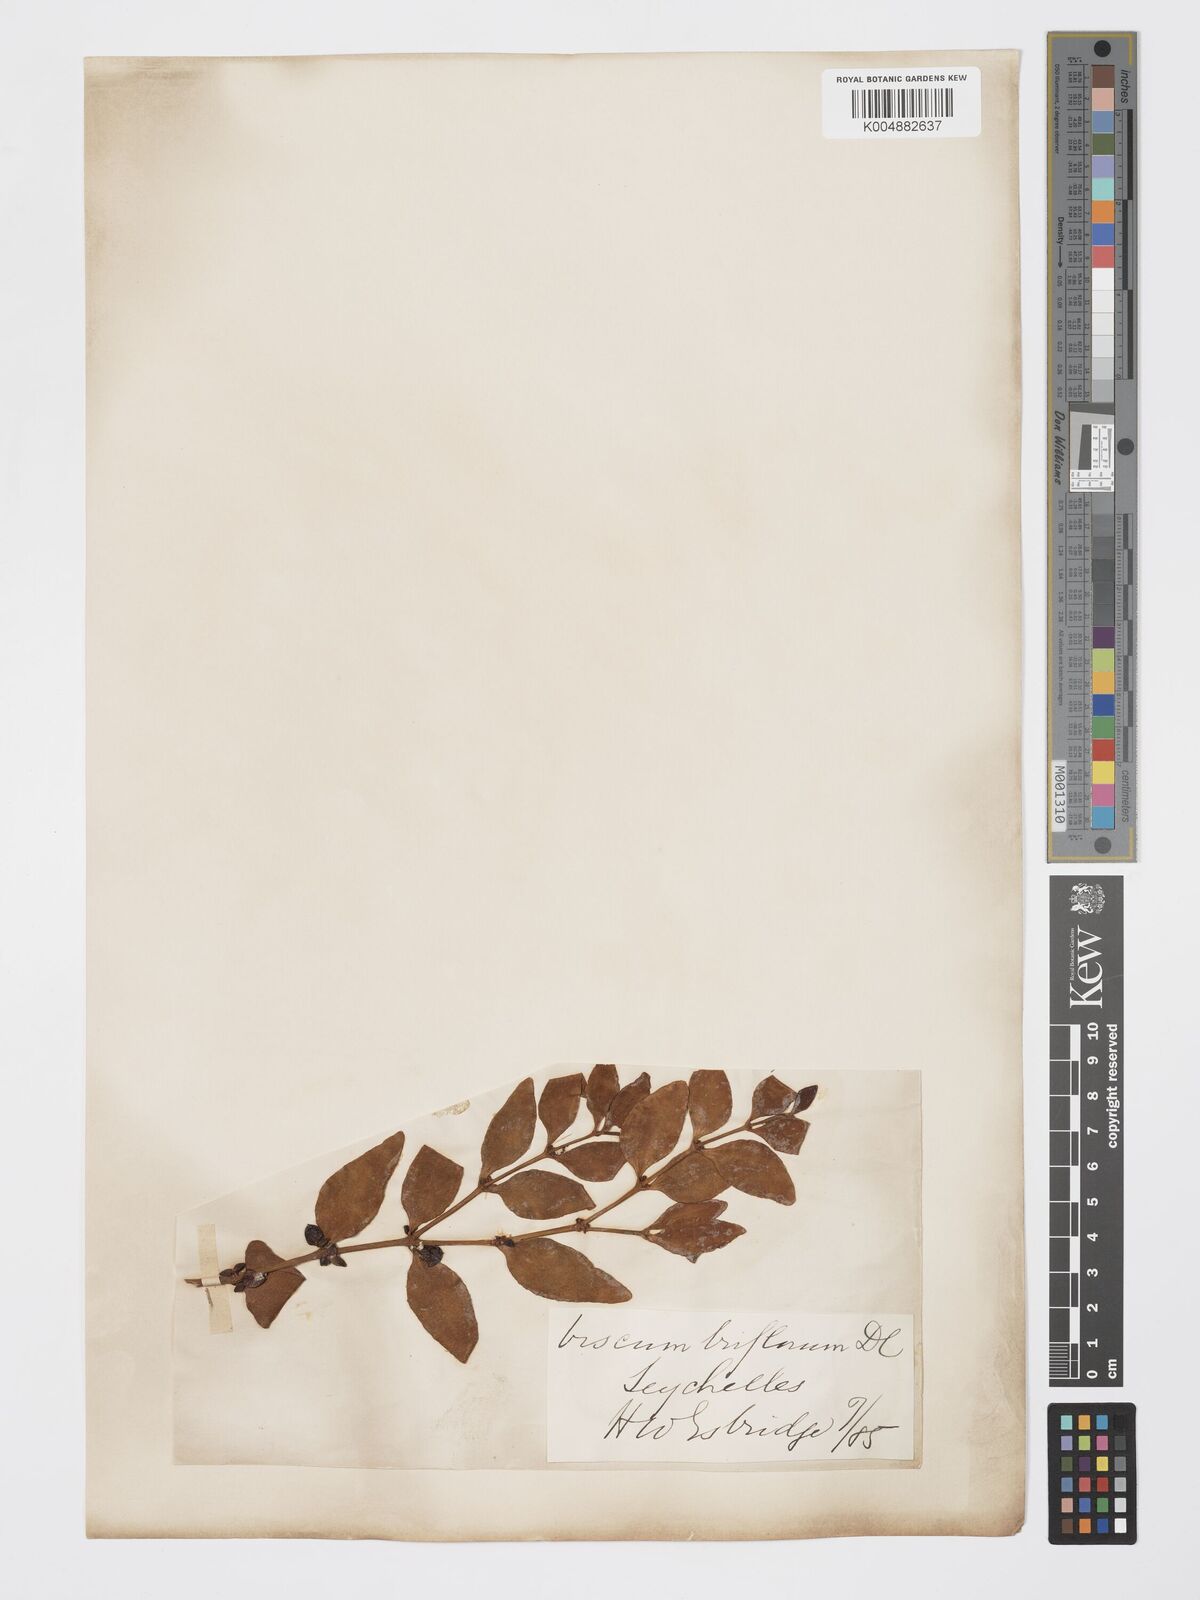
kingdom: Plantae
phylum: Tracheophyta
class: Magnoliopsida
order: Santalales
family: Viscaceae
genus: Viscum
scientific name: Viscum triflorum
